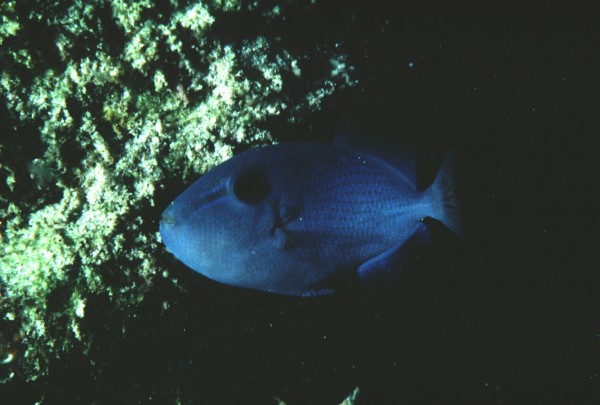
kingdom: Animalia
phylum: Chordata
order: Tetraodontiformes
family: Balistidae
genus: Odonus
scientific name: Odonus niger
